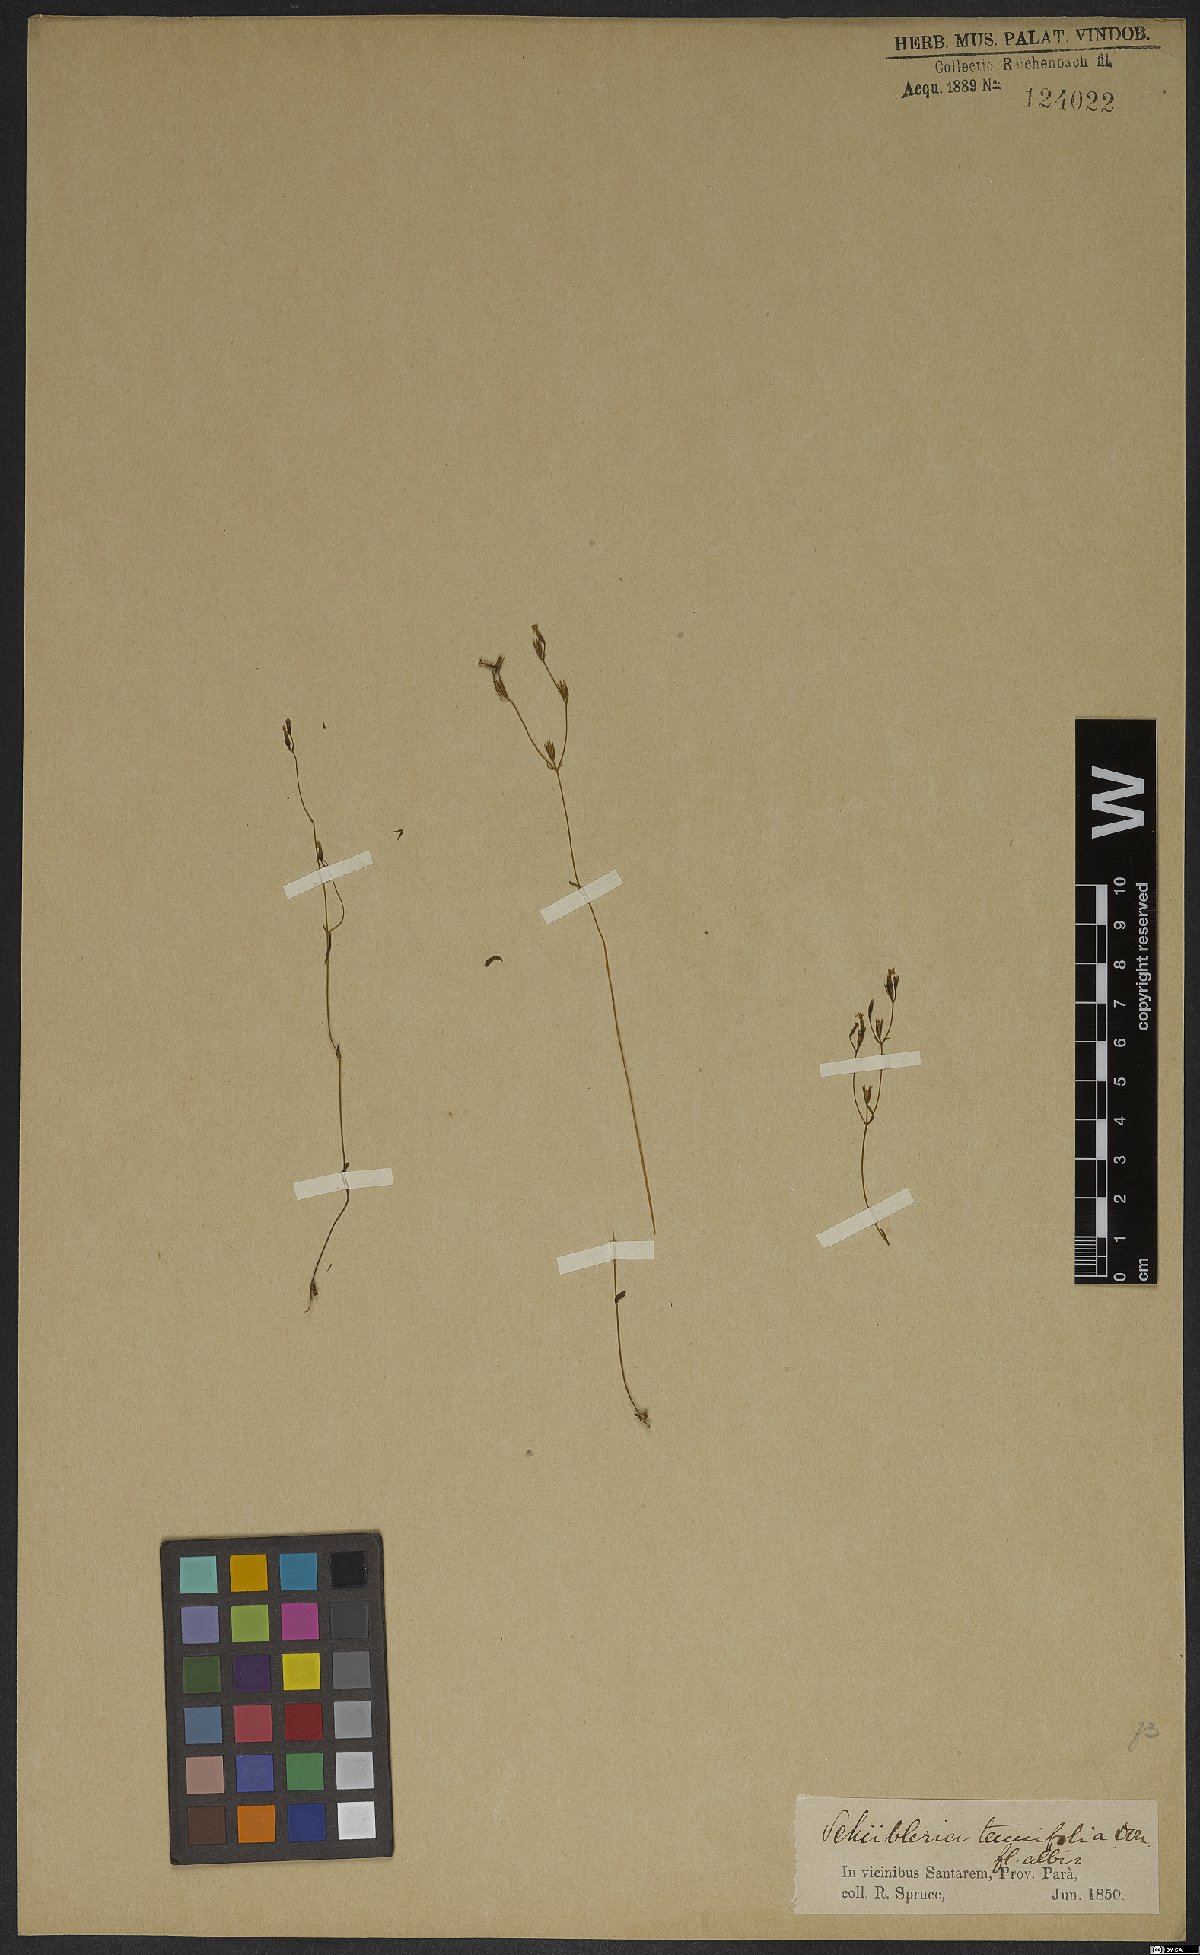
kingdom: Plantae
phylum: Tracheophyta
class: Magnoliopsida
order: Gentianales
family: Gentianaceae
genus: Curtia
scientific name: Curtia tenuifolia
